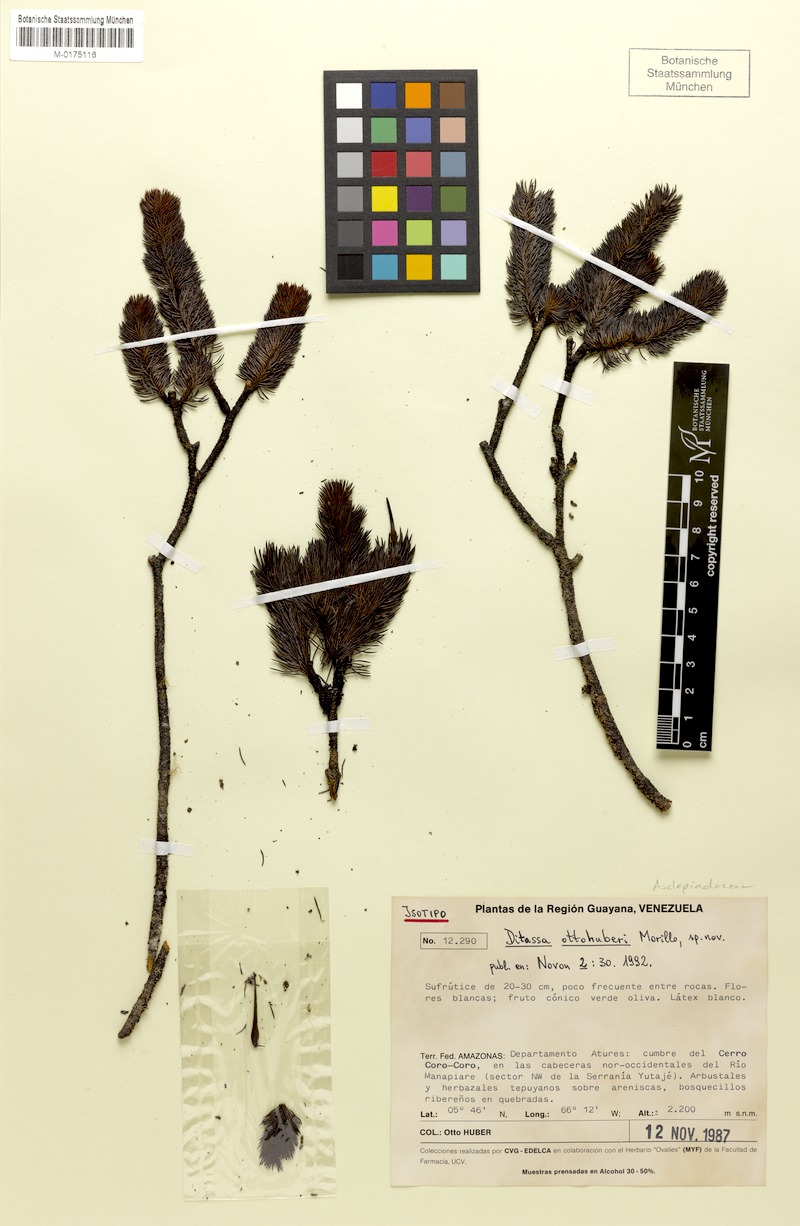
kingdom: Plantae
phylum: Tracheophyta
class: Magnoliopsida
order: Gentianales
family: Apocynaceae
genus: Ditassa
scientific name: Ditassa ottohuberi
